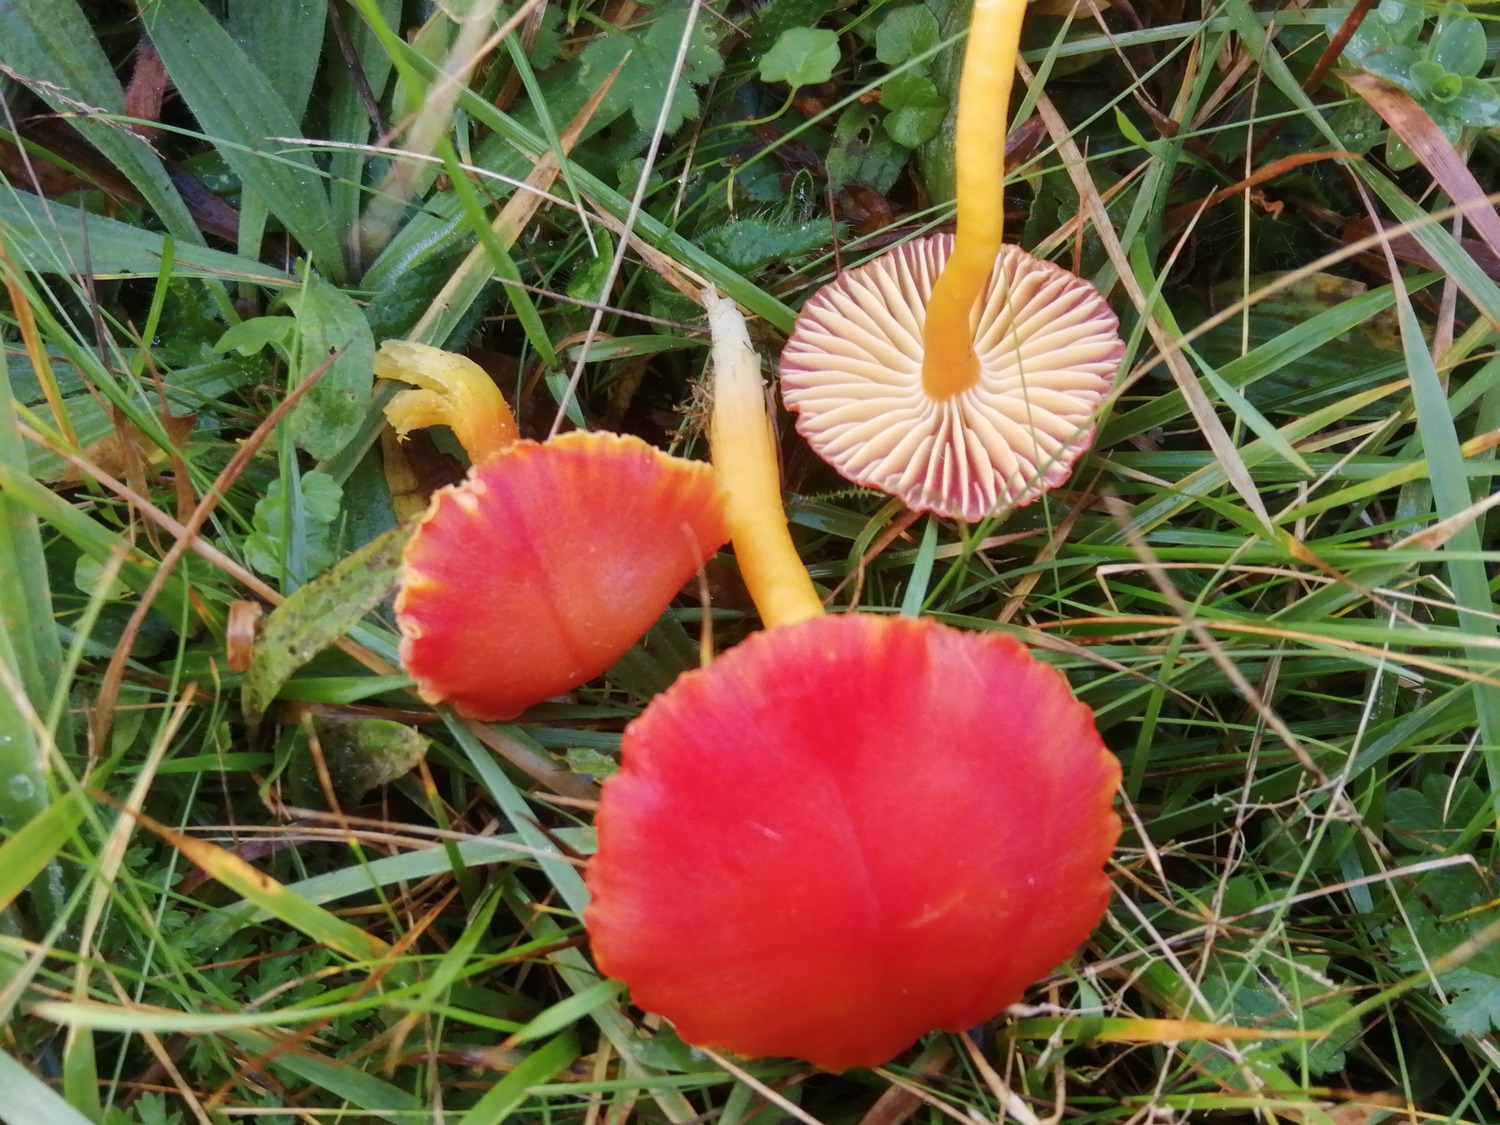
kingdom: Fungi
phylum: Basidiomycota
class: Agaricomycetes
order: Agaricales
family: Hygrophoraceae
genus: Hygrocybe
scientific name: Hygrocybe coccinea
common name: cinnober-vokshat
